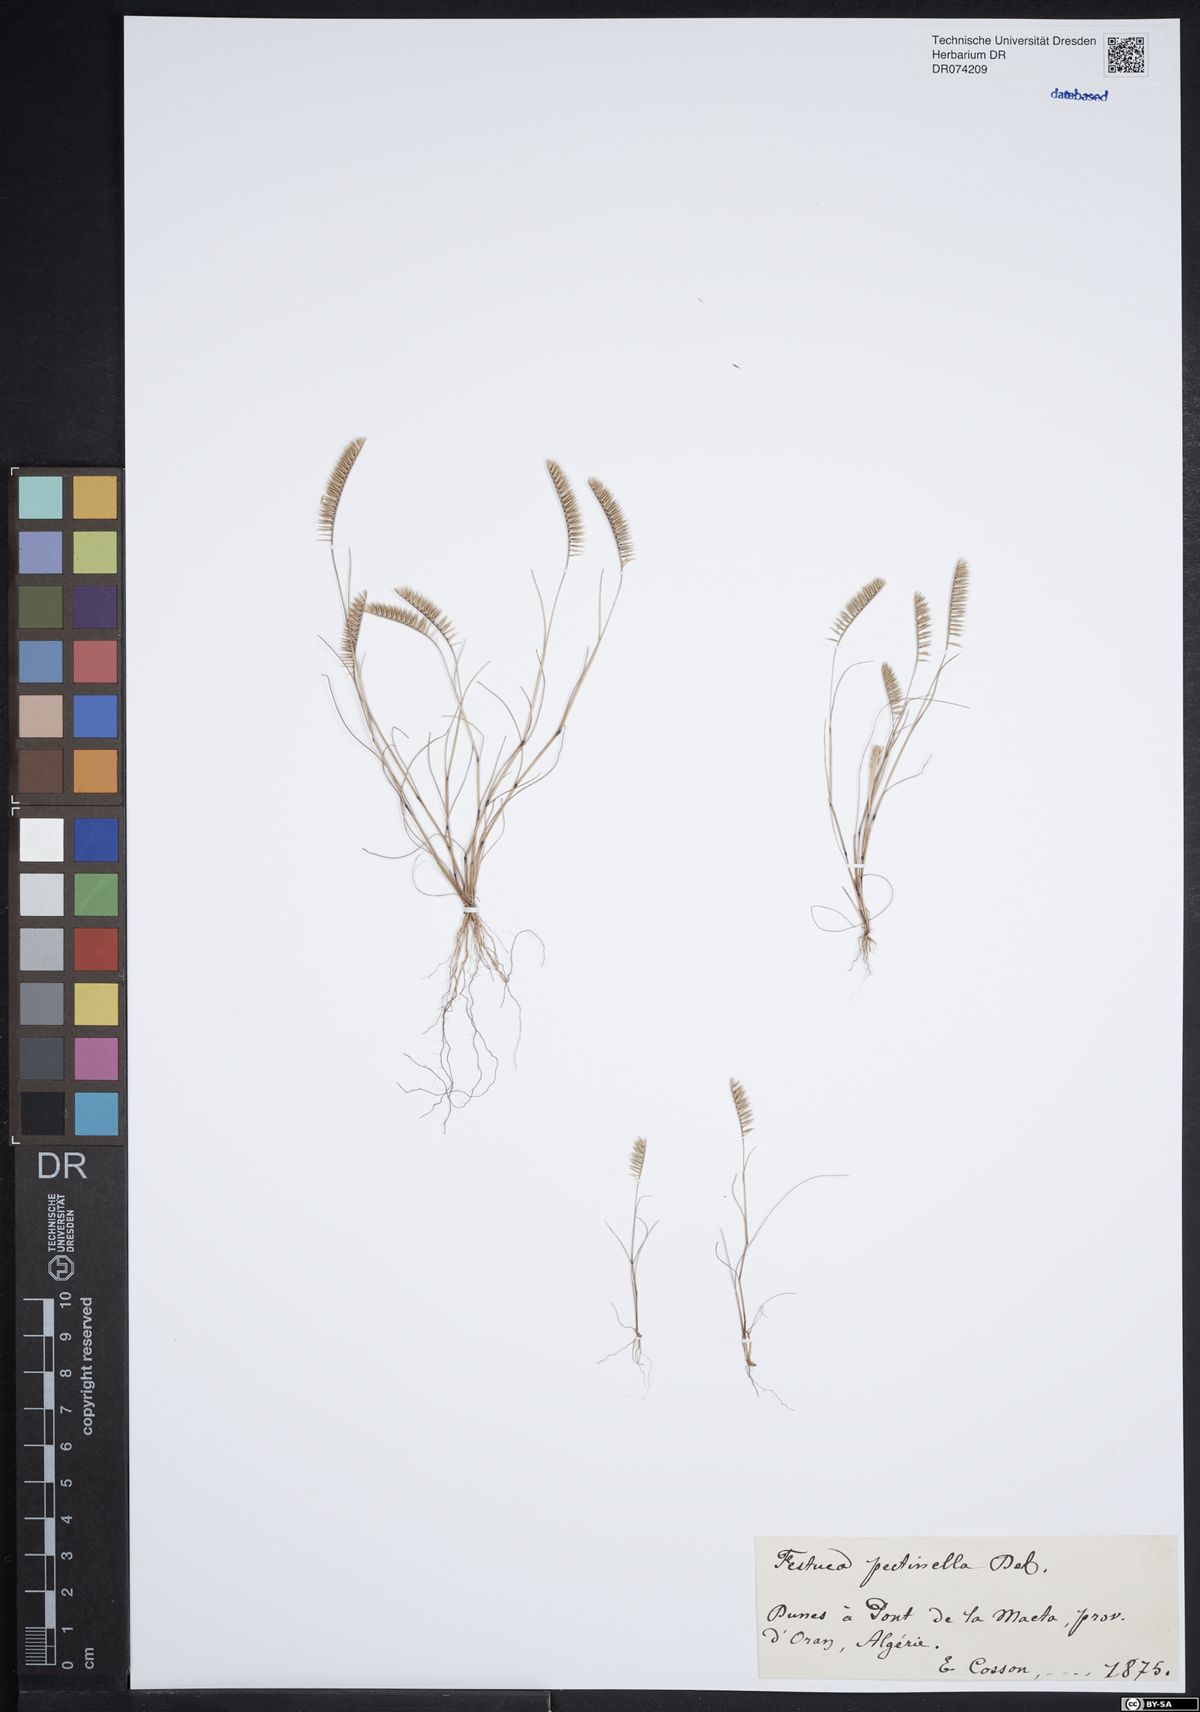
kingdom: Plantae
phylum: Tracheophyta
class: Liliopsida
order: Poales
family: Poaceae
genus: Festuca
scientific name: Festuca pectinella
